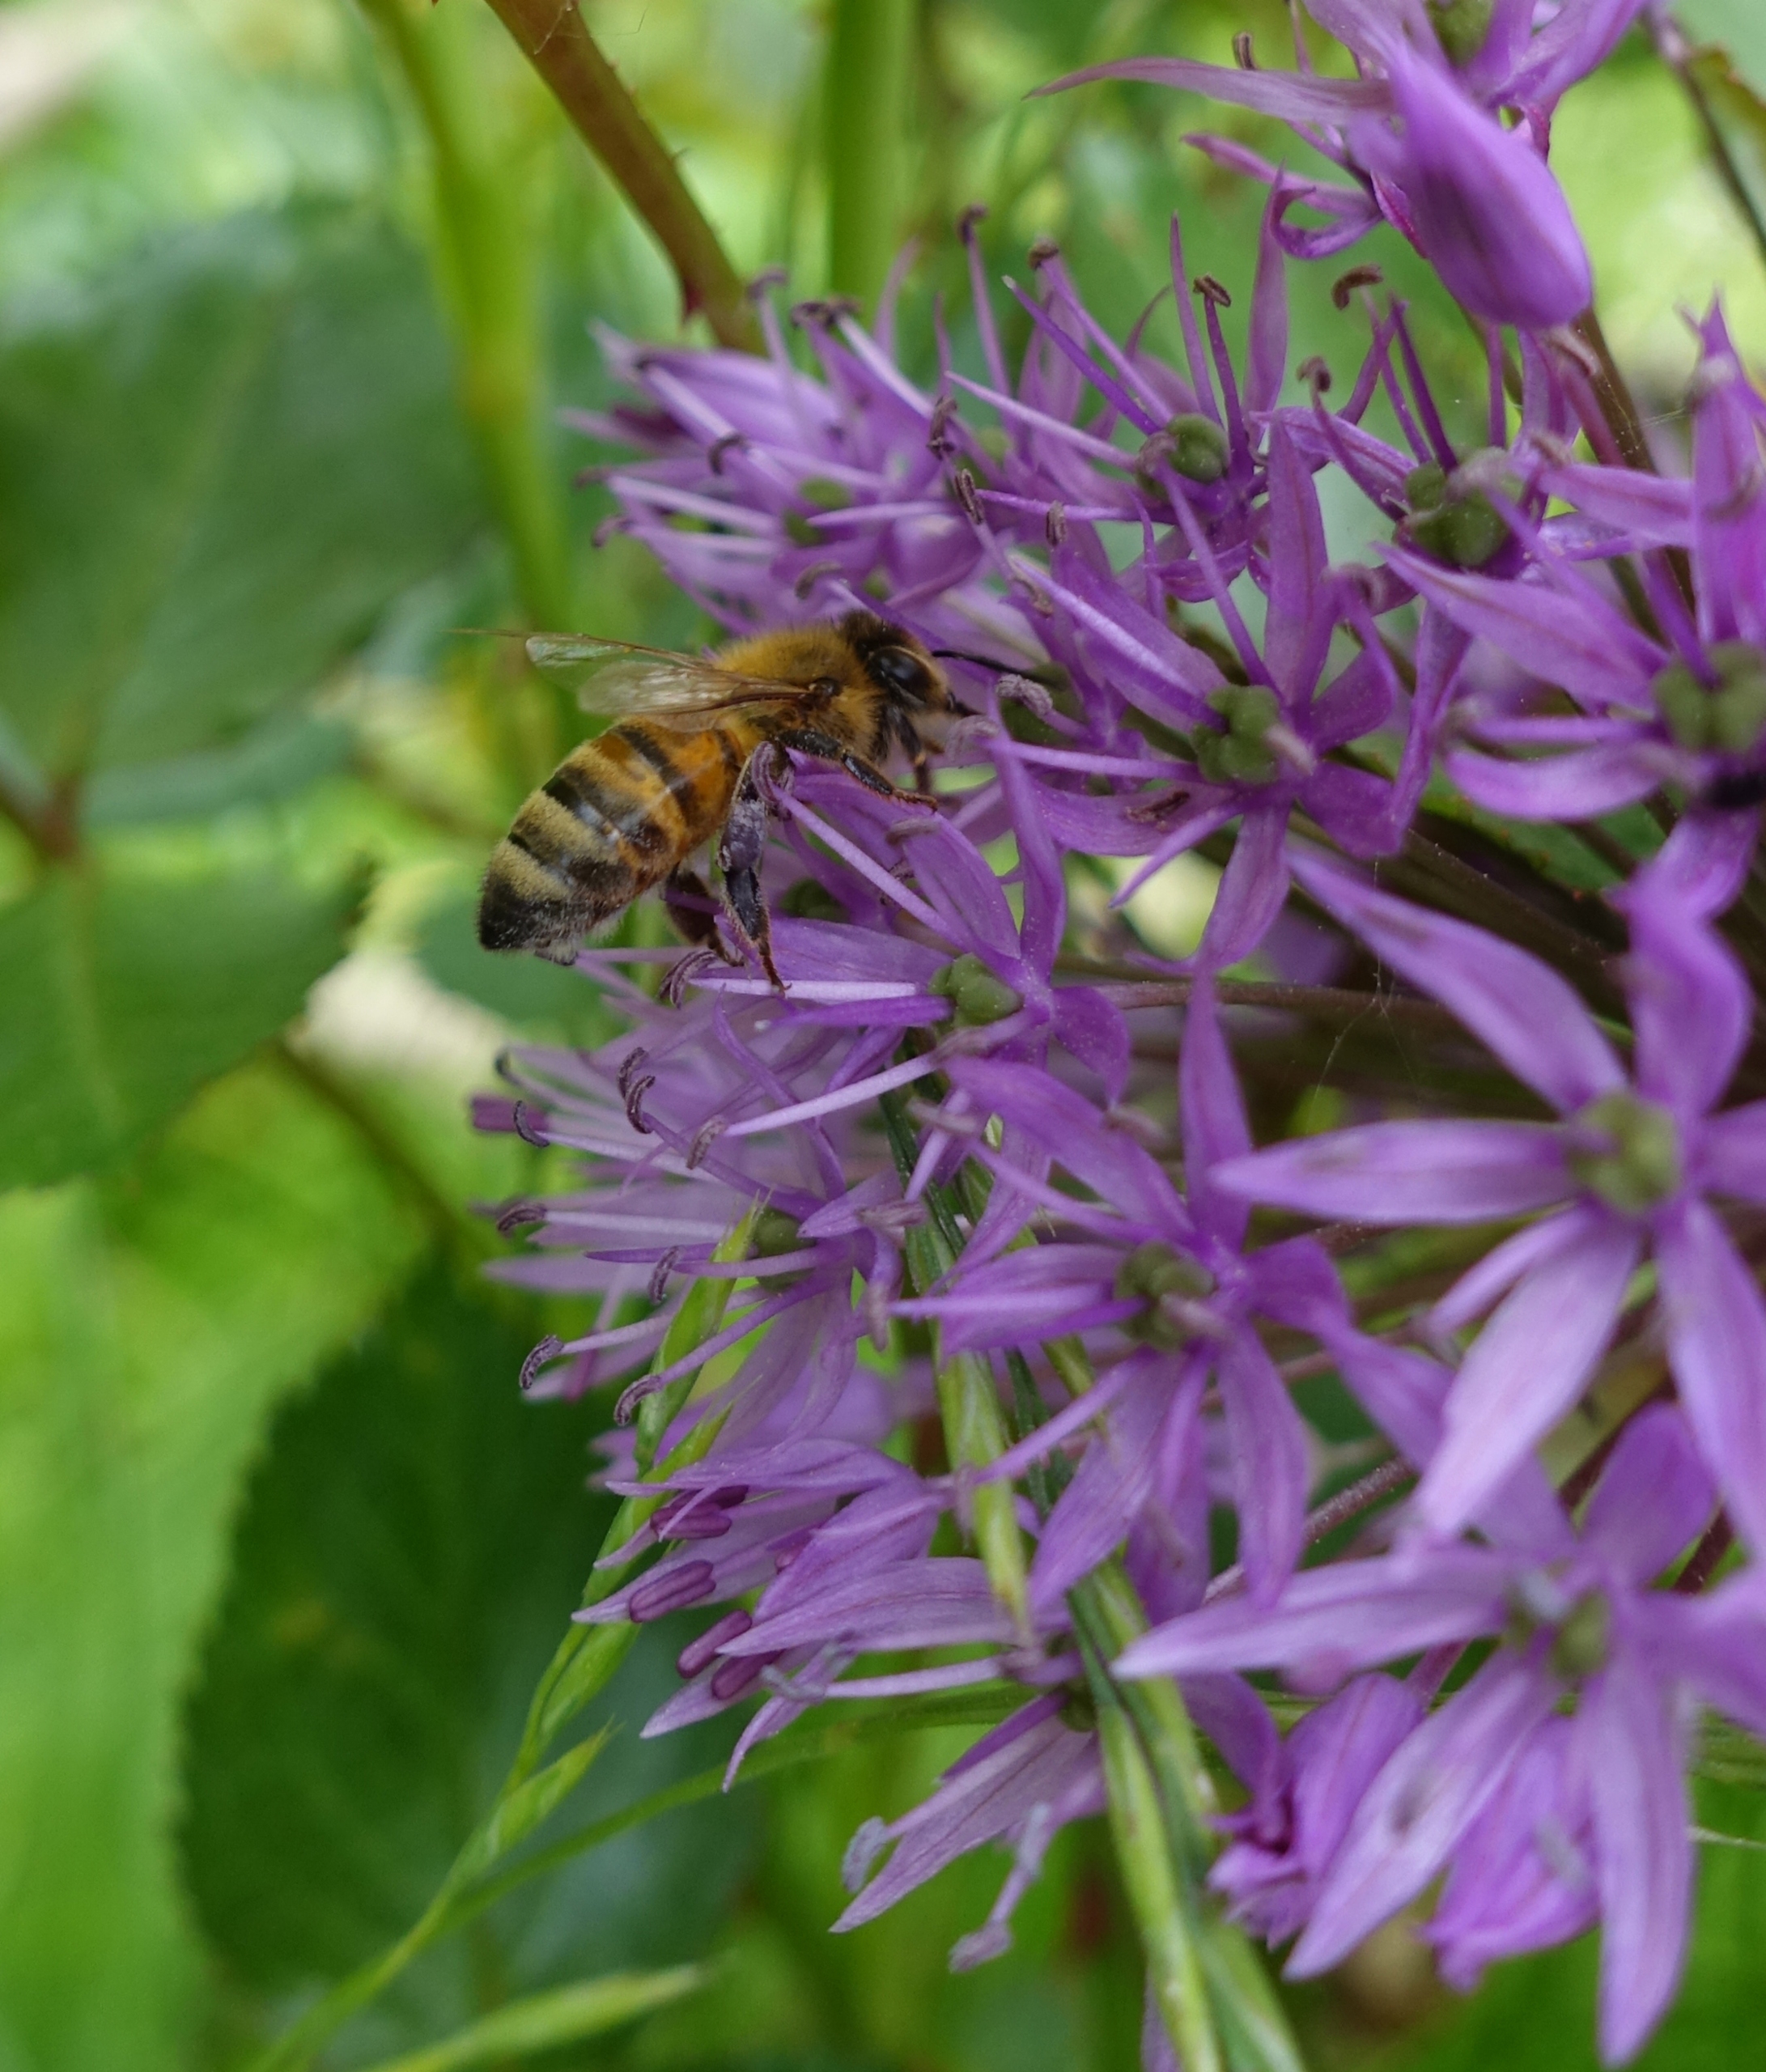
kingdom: Animalia
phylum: Arthropoda
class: Insecta
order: Hymenoptera
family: Apidae
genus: Apis
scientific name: Apis mellifera
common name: Honningbi
